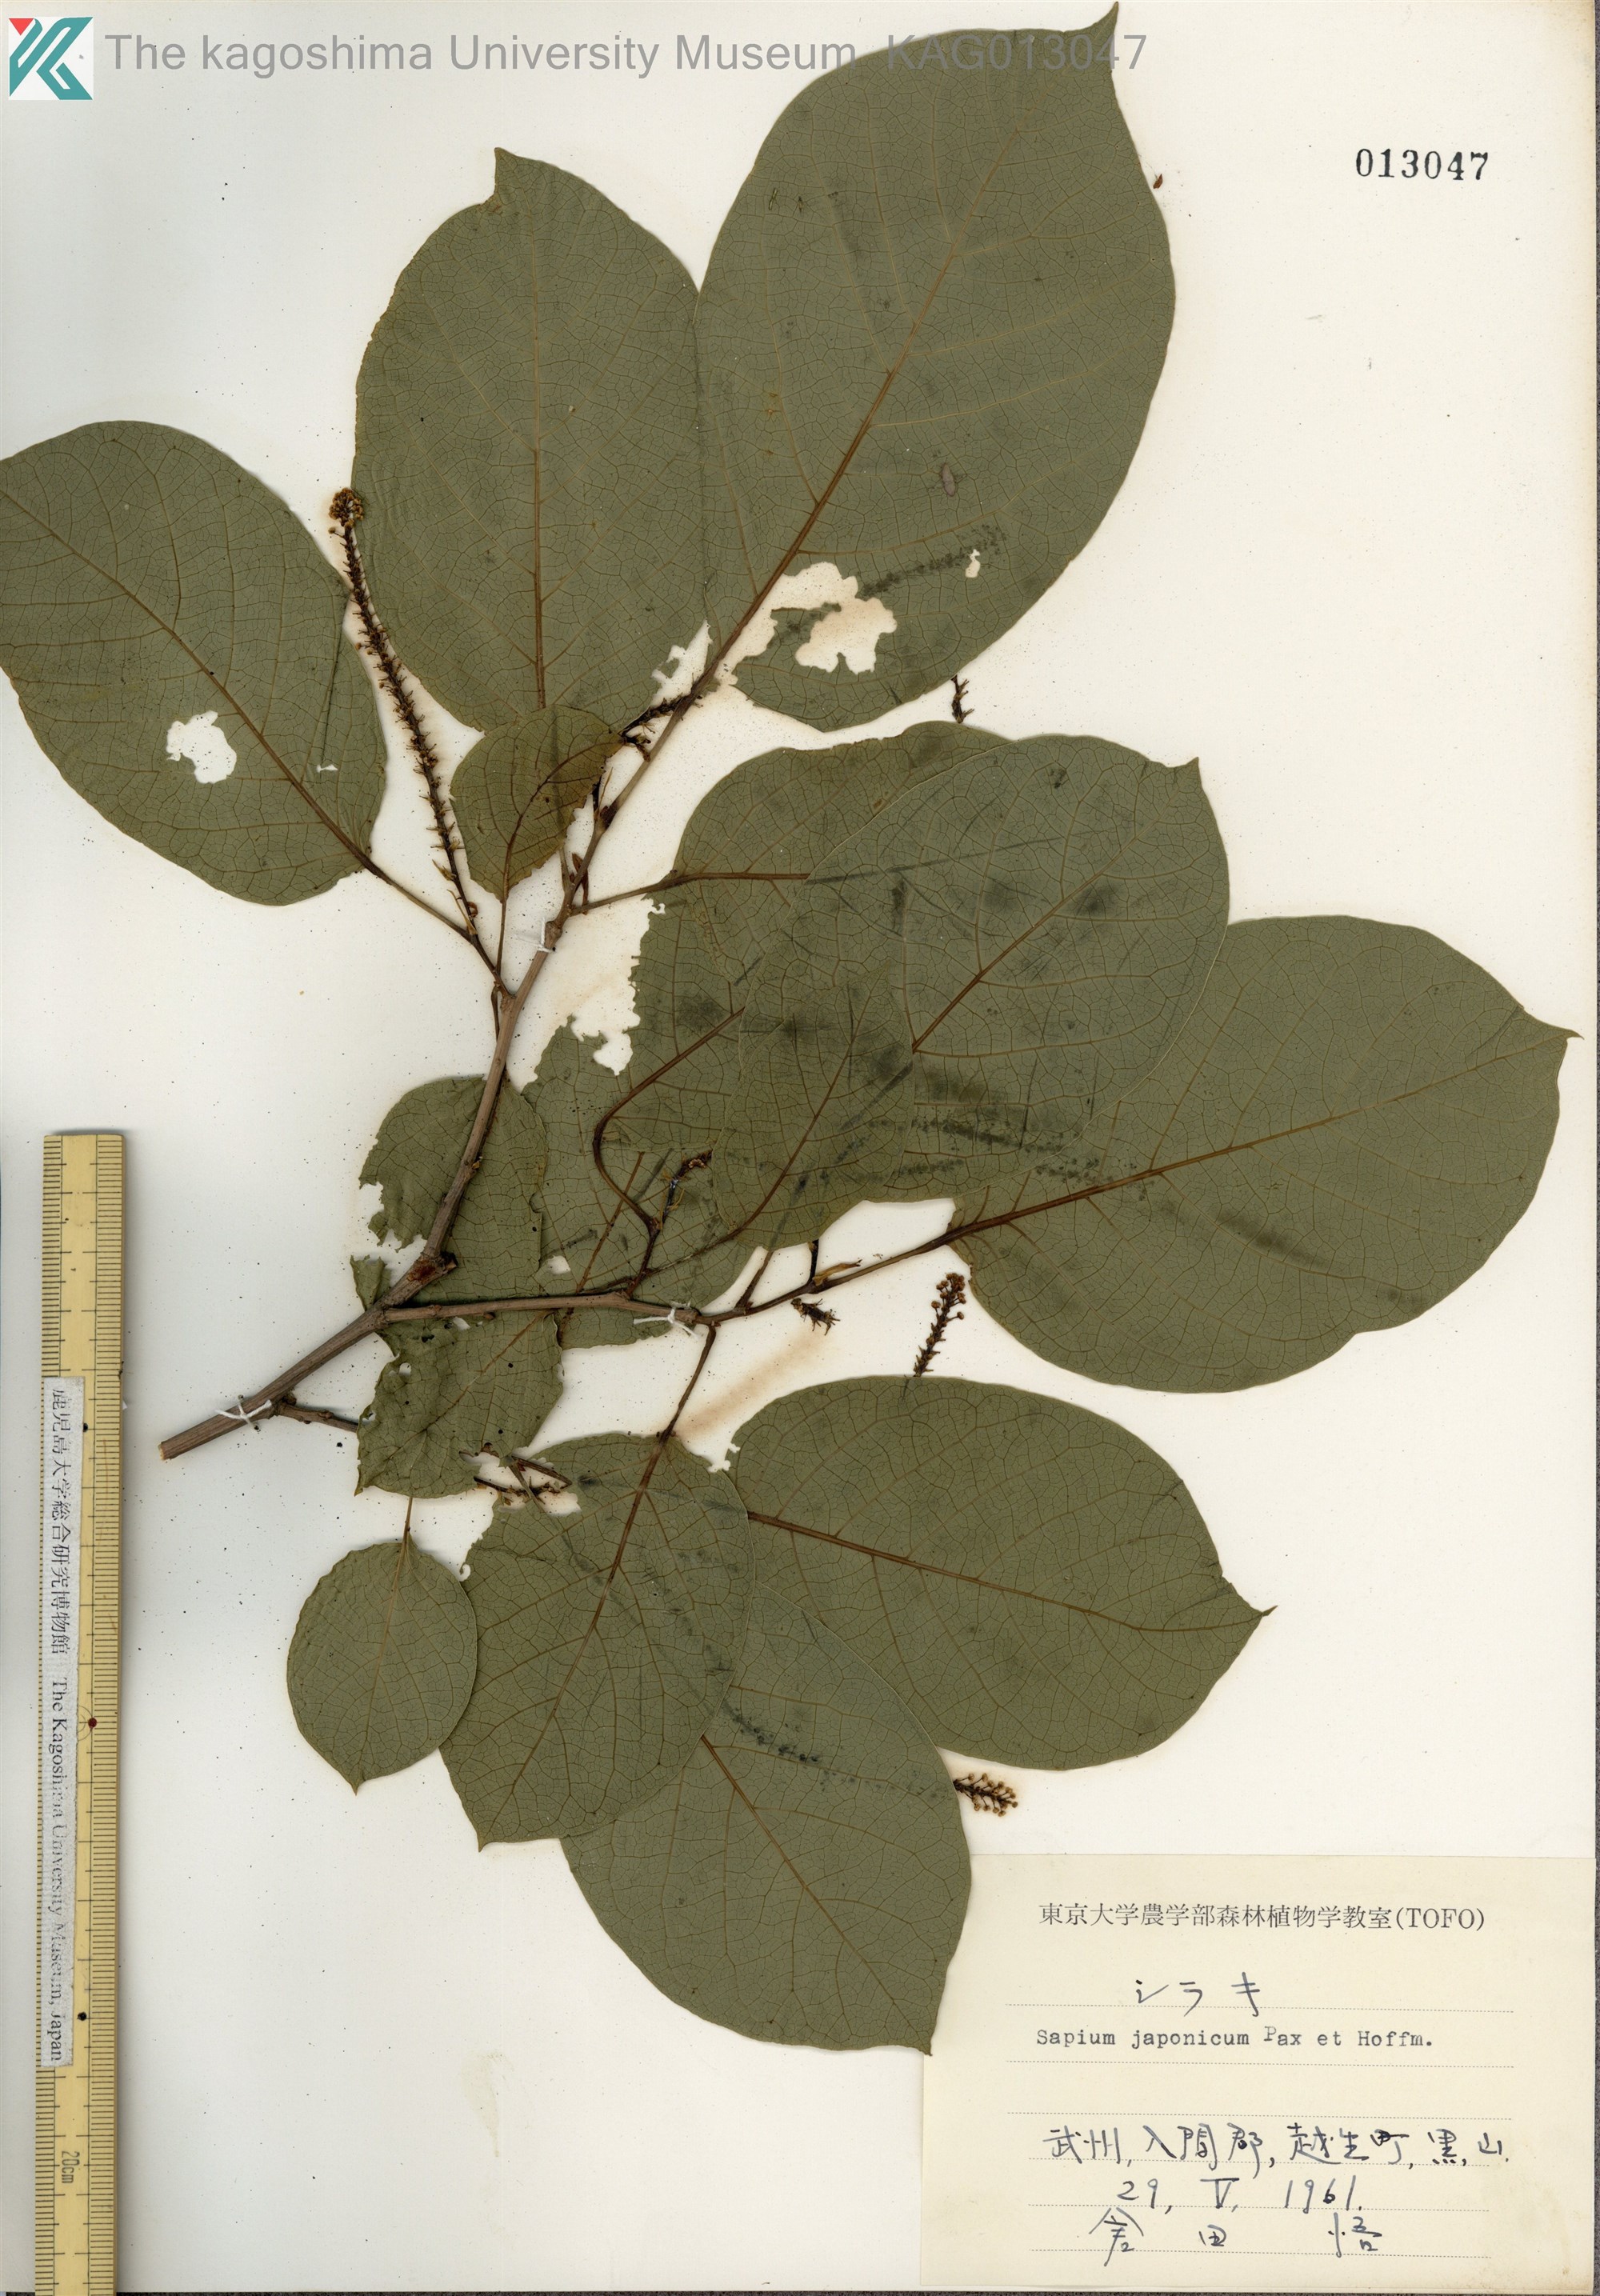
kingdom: Plantae
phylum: Tracheophyta
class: Magnoliopsida
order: Malpighiales
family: Euphorbiaceae
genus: Neoshirakia
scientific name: Neoshirakia japonica
